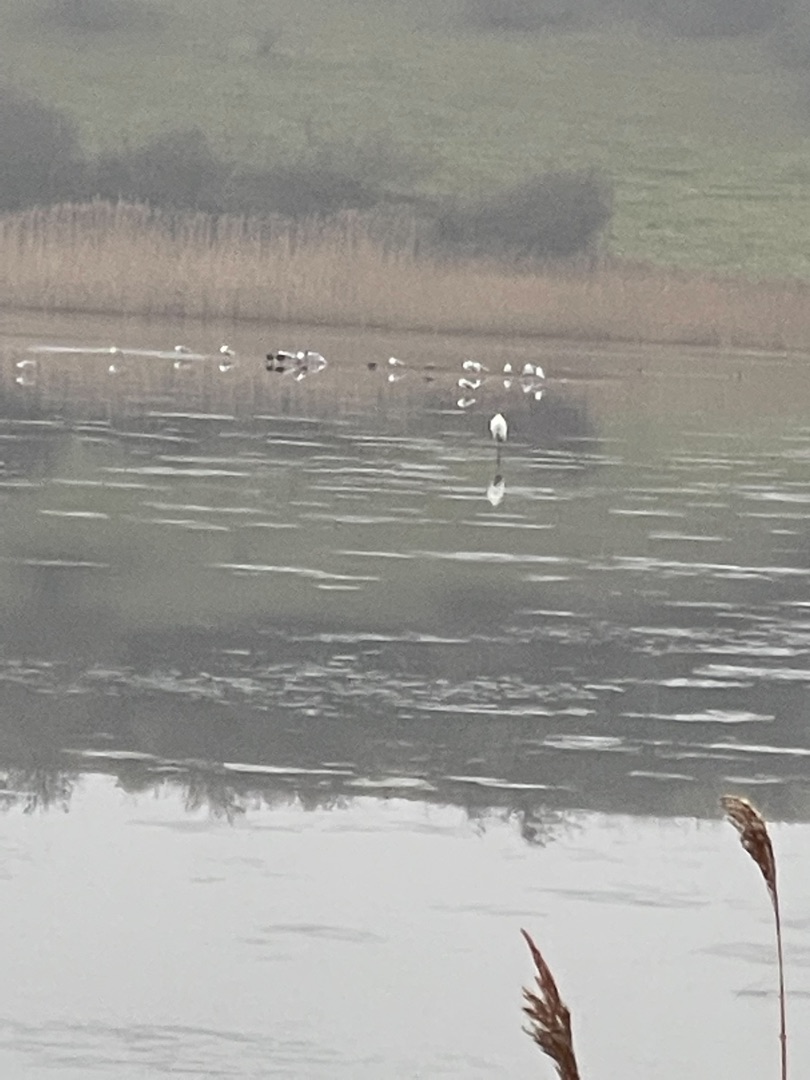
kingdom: Animalia
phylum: Chordata
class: Aves
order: Pelecaniformes
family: Ardeidae
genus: Ardea
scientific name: Ardea alba
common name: Sølvhejre
